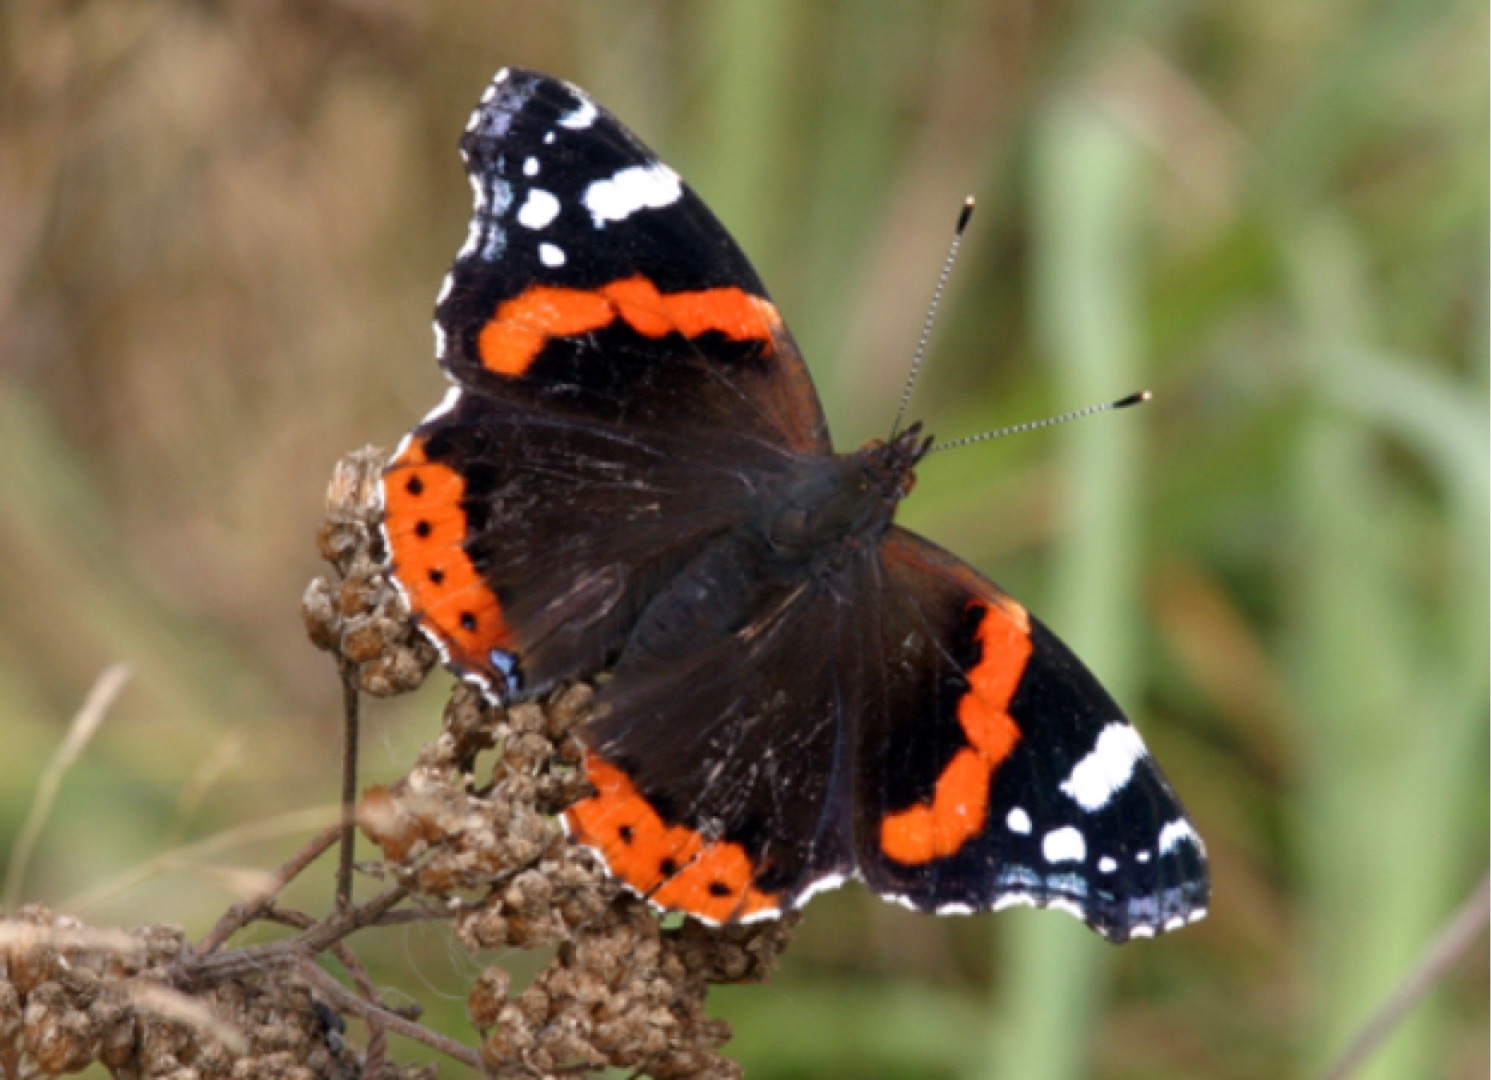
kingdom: Animalia
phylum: Arthropoda
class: Insecta
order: Lepidoptera
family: Nymphalidae
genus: Vanessa
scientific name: Vanessa atalanta
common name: Admiral
